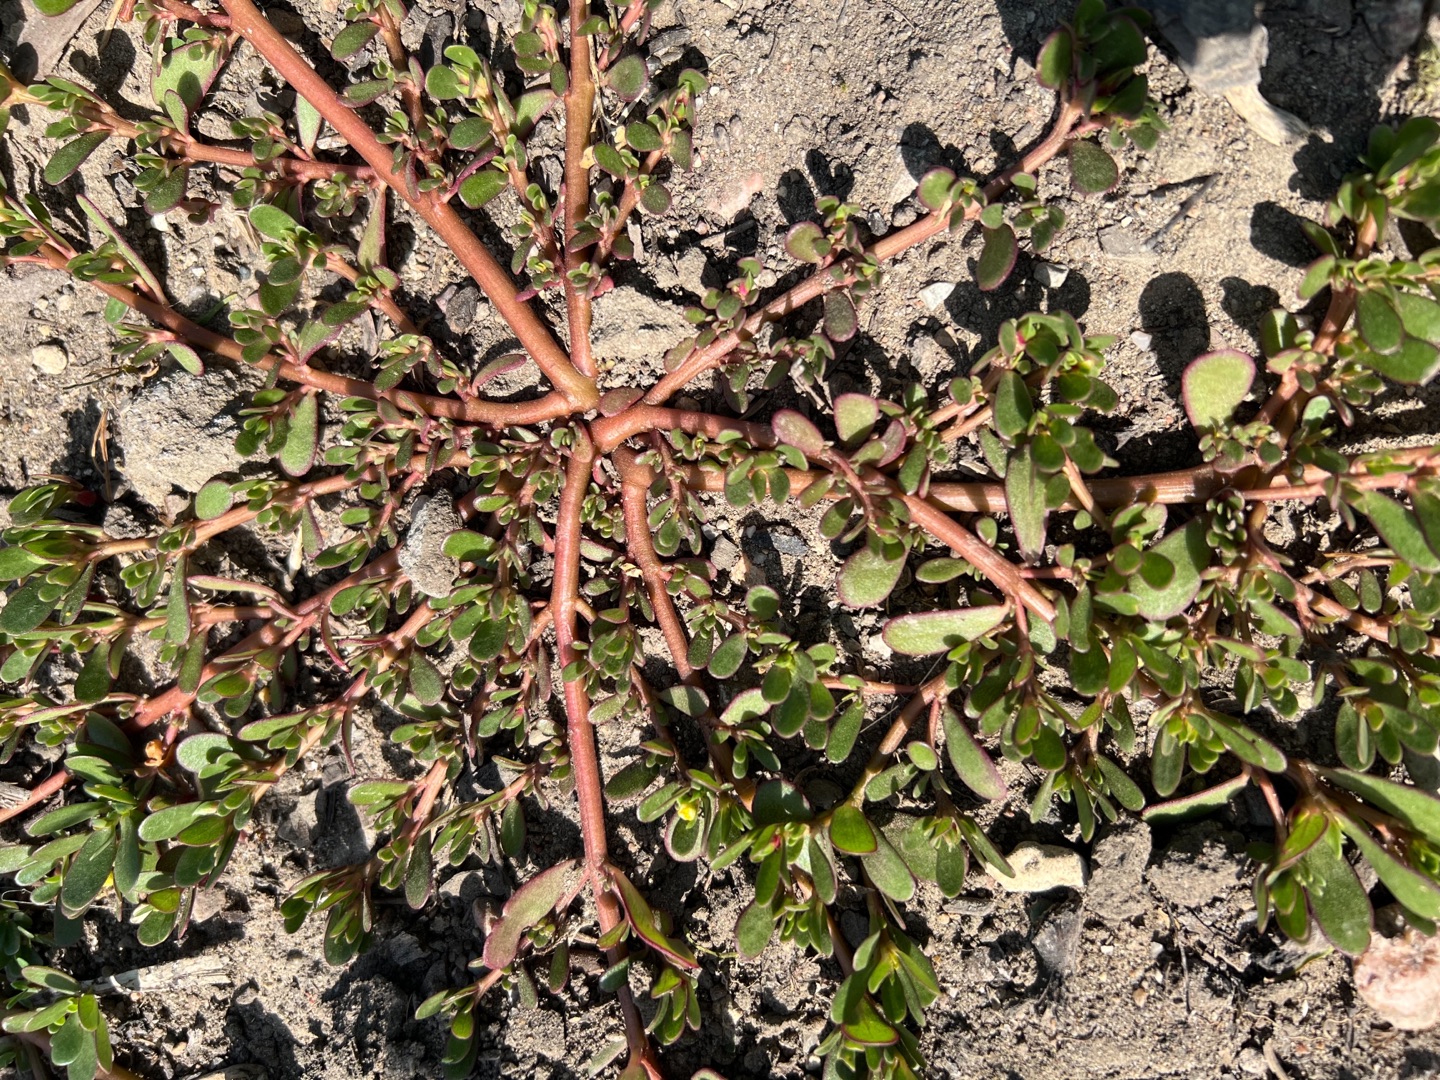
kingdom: Plantae
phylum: Tracheophyta
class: Magnoliopsida
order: Caryophyllales
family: Portulacaceae
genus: Portulaca
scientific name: Portulaca oleracea
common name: Portulak
